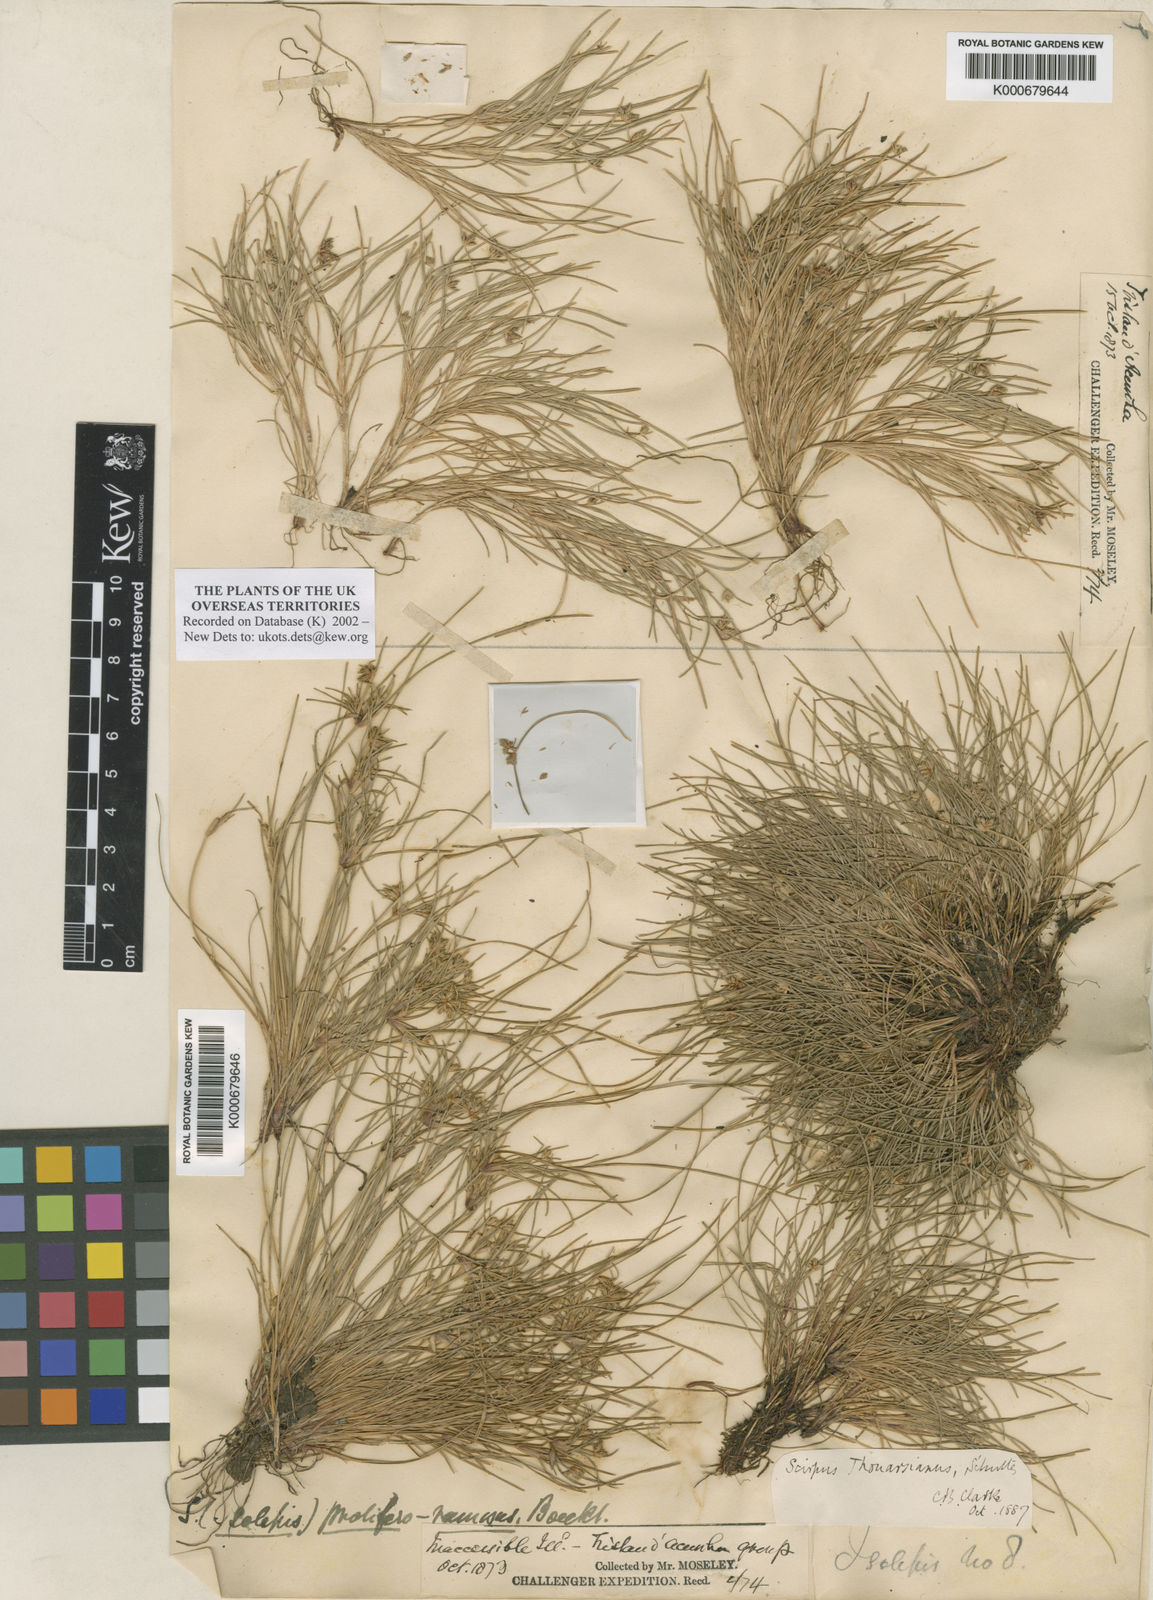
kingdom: Plantae
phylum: Tracheophyta
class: Liliopsida
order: Poales
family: Cyperaceae
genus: Isolepis
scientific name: Isolepis bicolor
